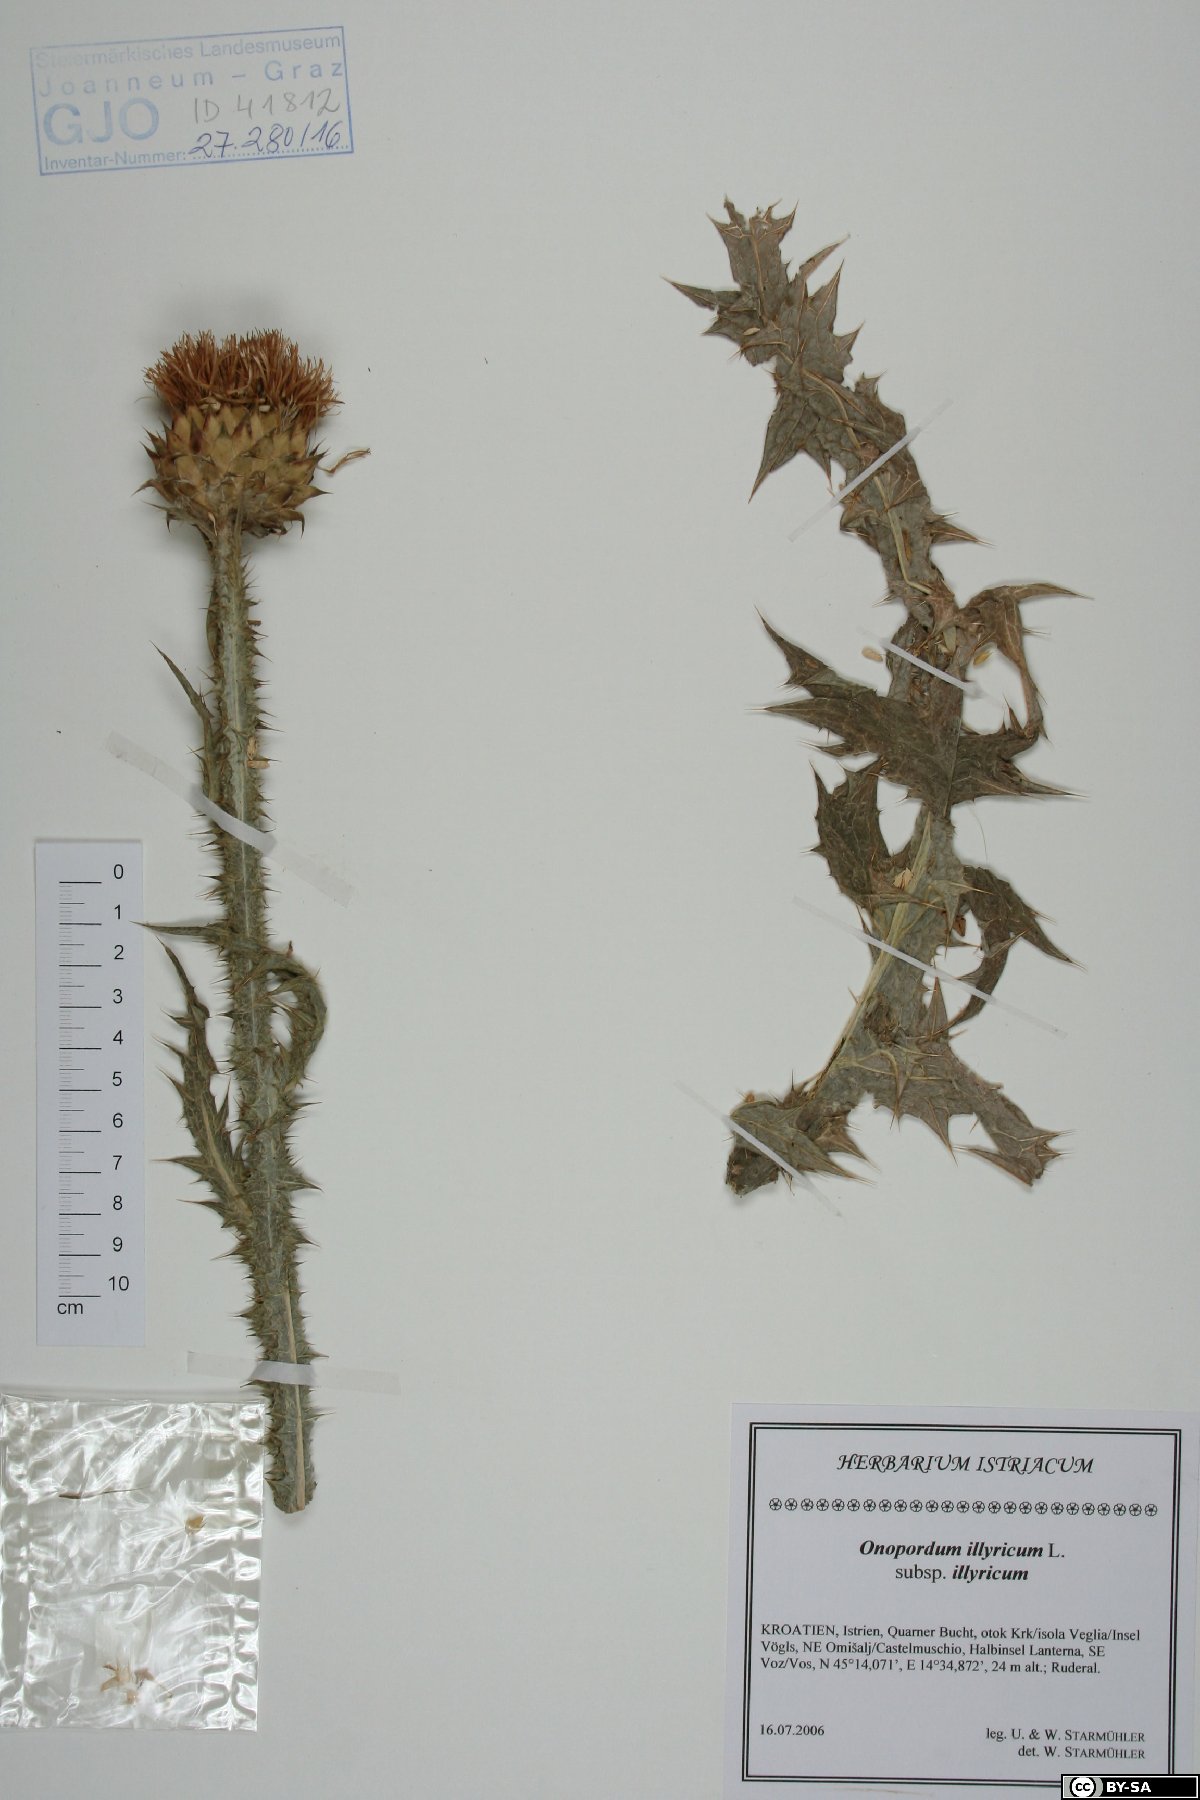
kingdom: Plantae
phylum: Tracheophyta
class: Magnoliopsida
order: Asterales
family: Asteraceae
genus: Onopordum
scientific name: Onopordum illyricum
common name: Illyrian thistle
